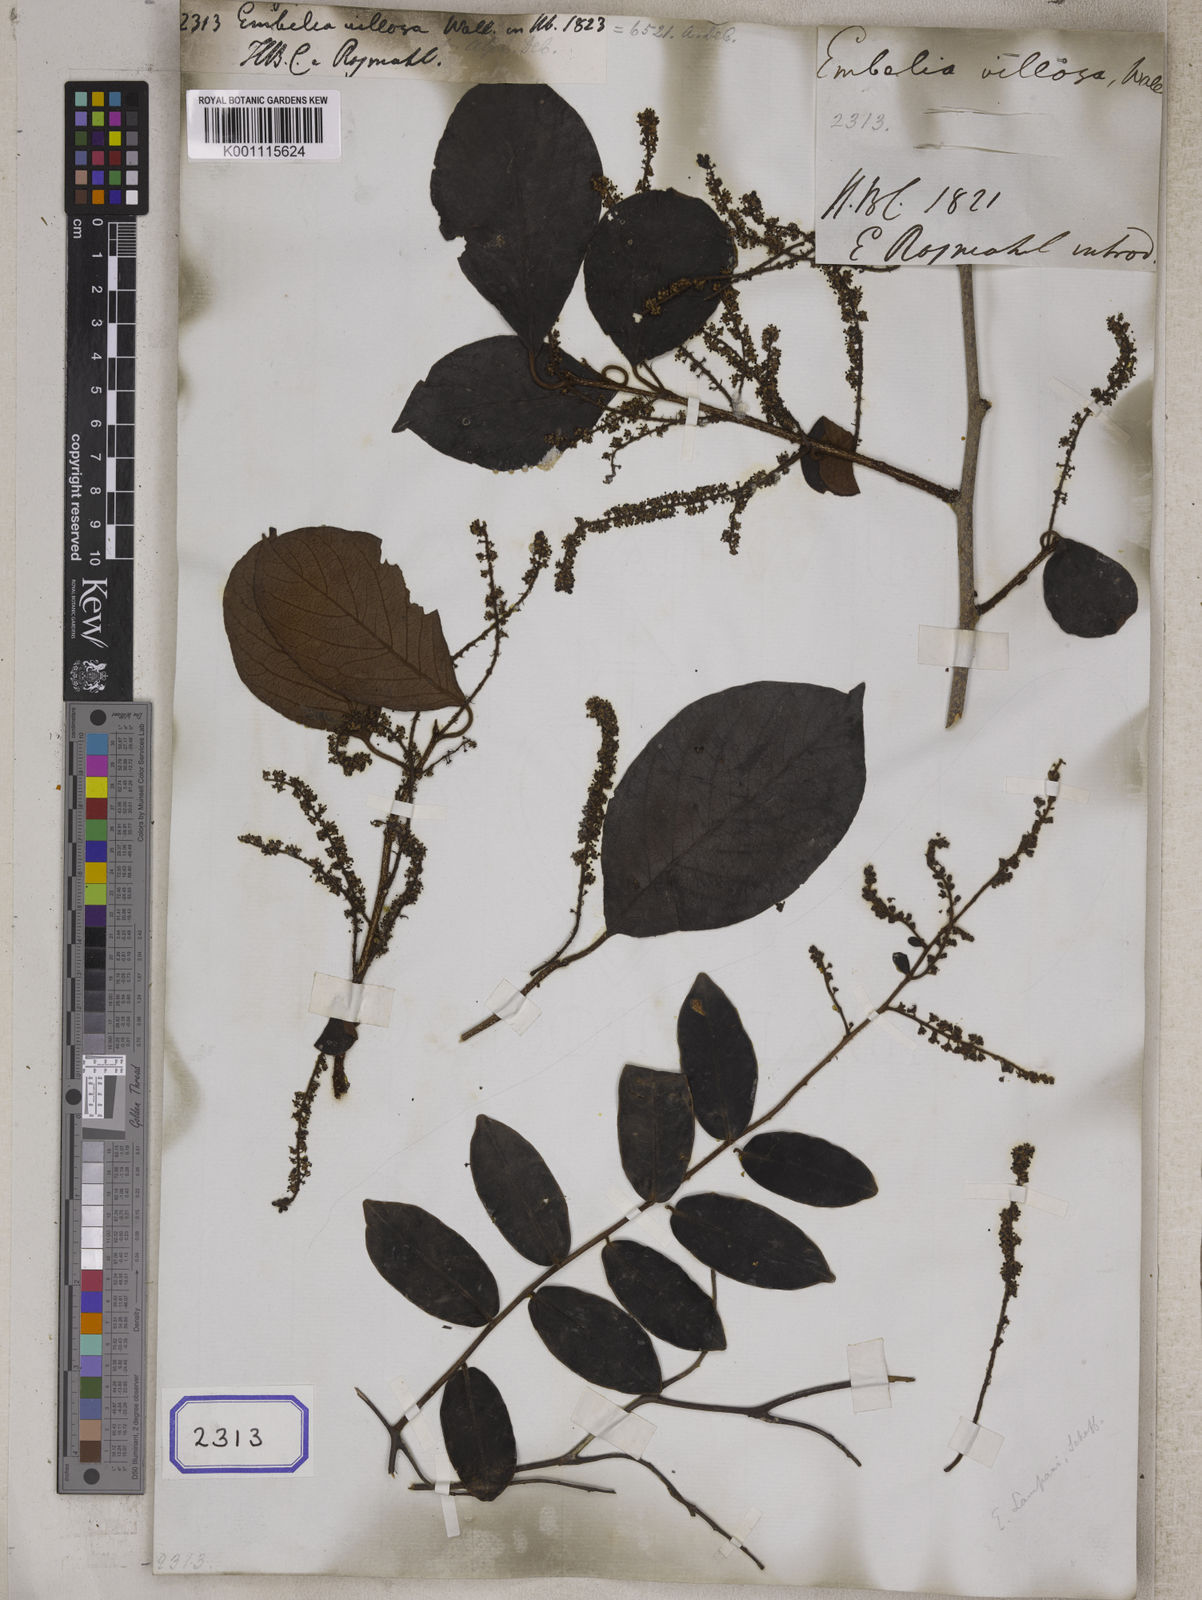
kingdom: Plantae
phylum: Tracheophyta
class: Magnoliopsida
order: Ericales
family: Primulaceae
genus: Embelia
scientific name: Embelia tsjeriam-cottam
